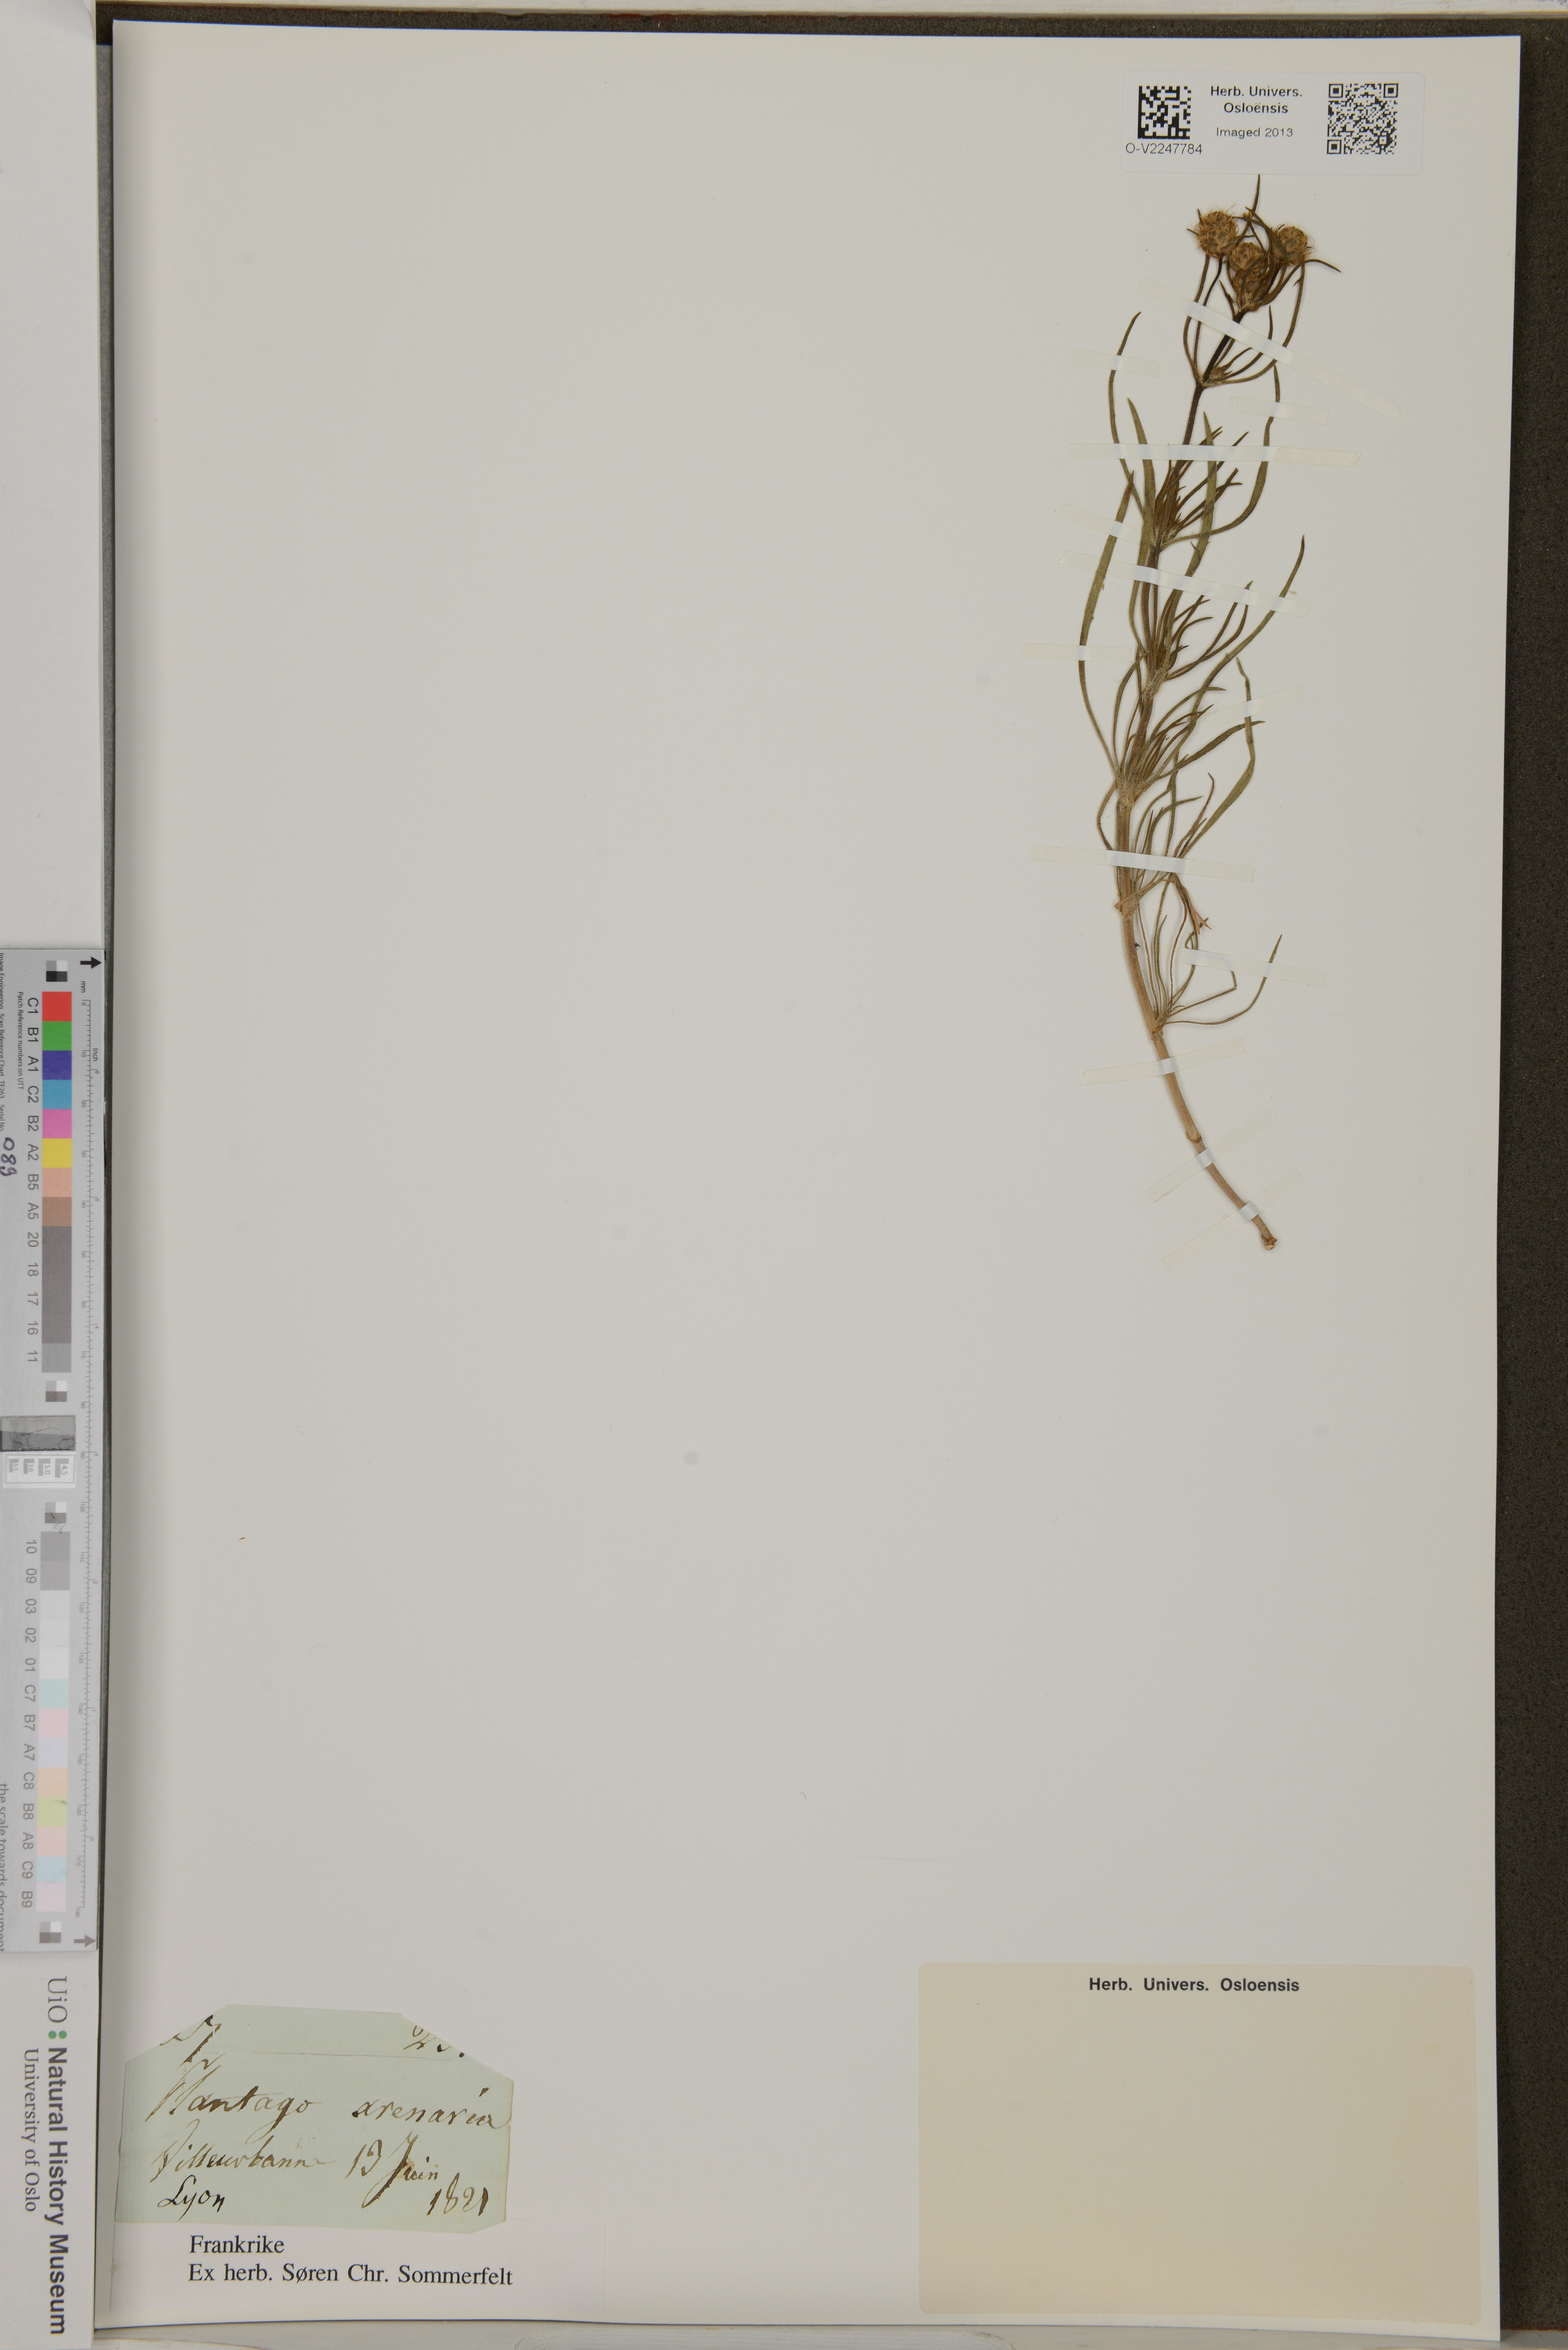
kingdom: Plantae
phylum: Tracheophyta
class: Magnoliopsida
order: Lamiales
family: Plantaginaceae
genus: Plantago
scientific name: Plantago arenaria
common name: Branched plantain
